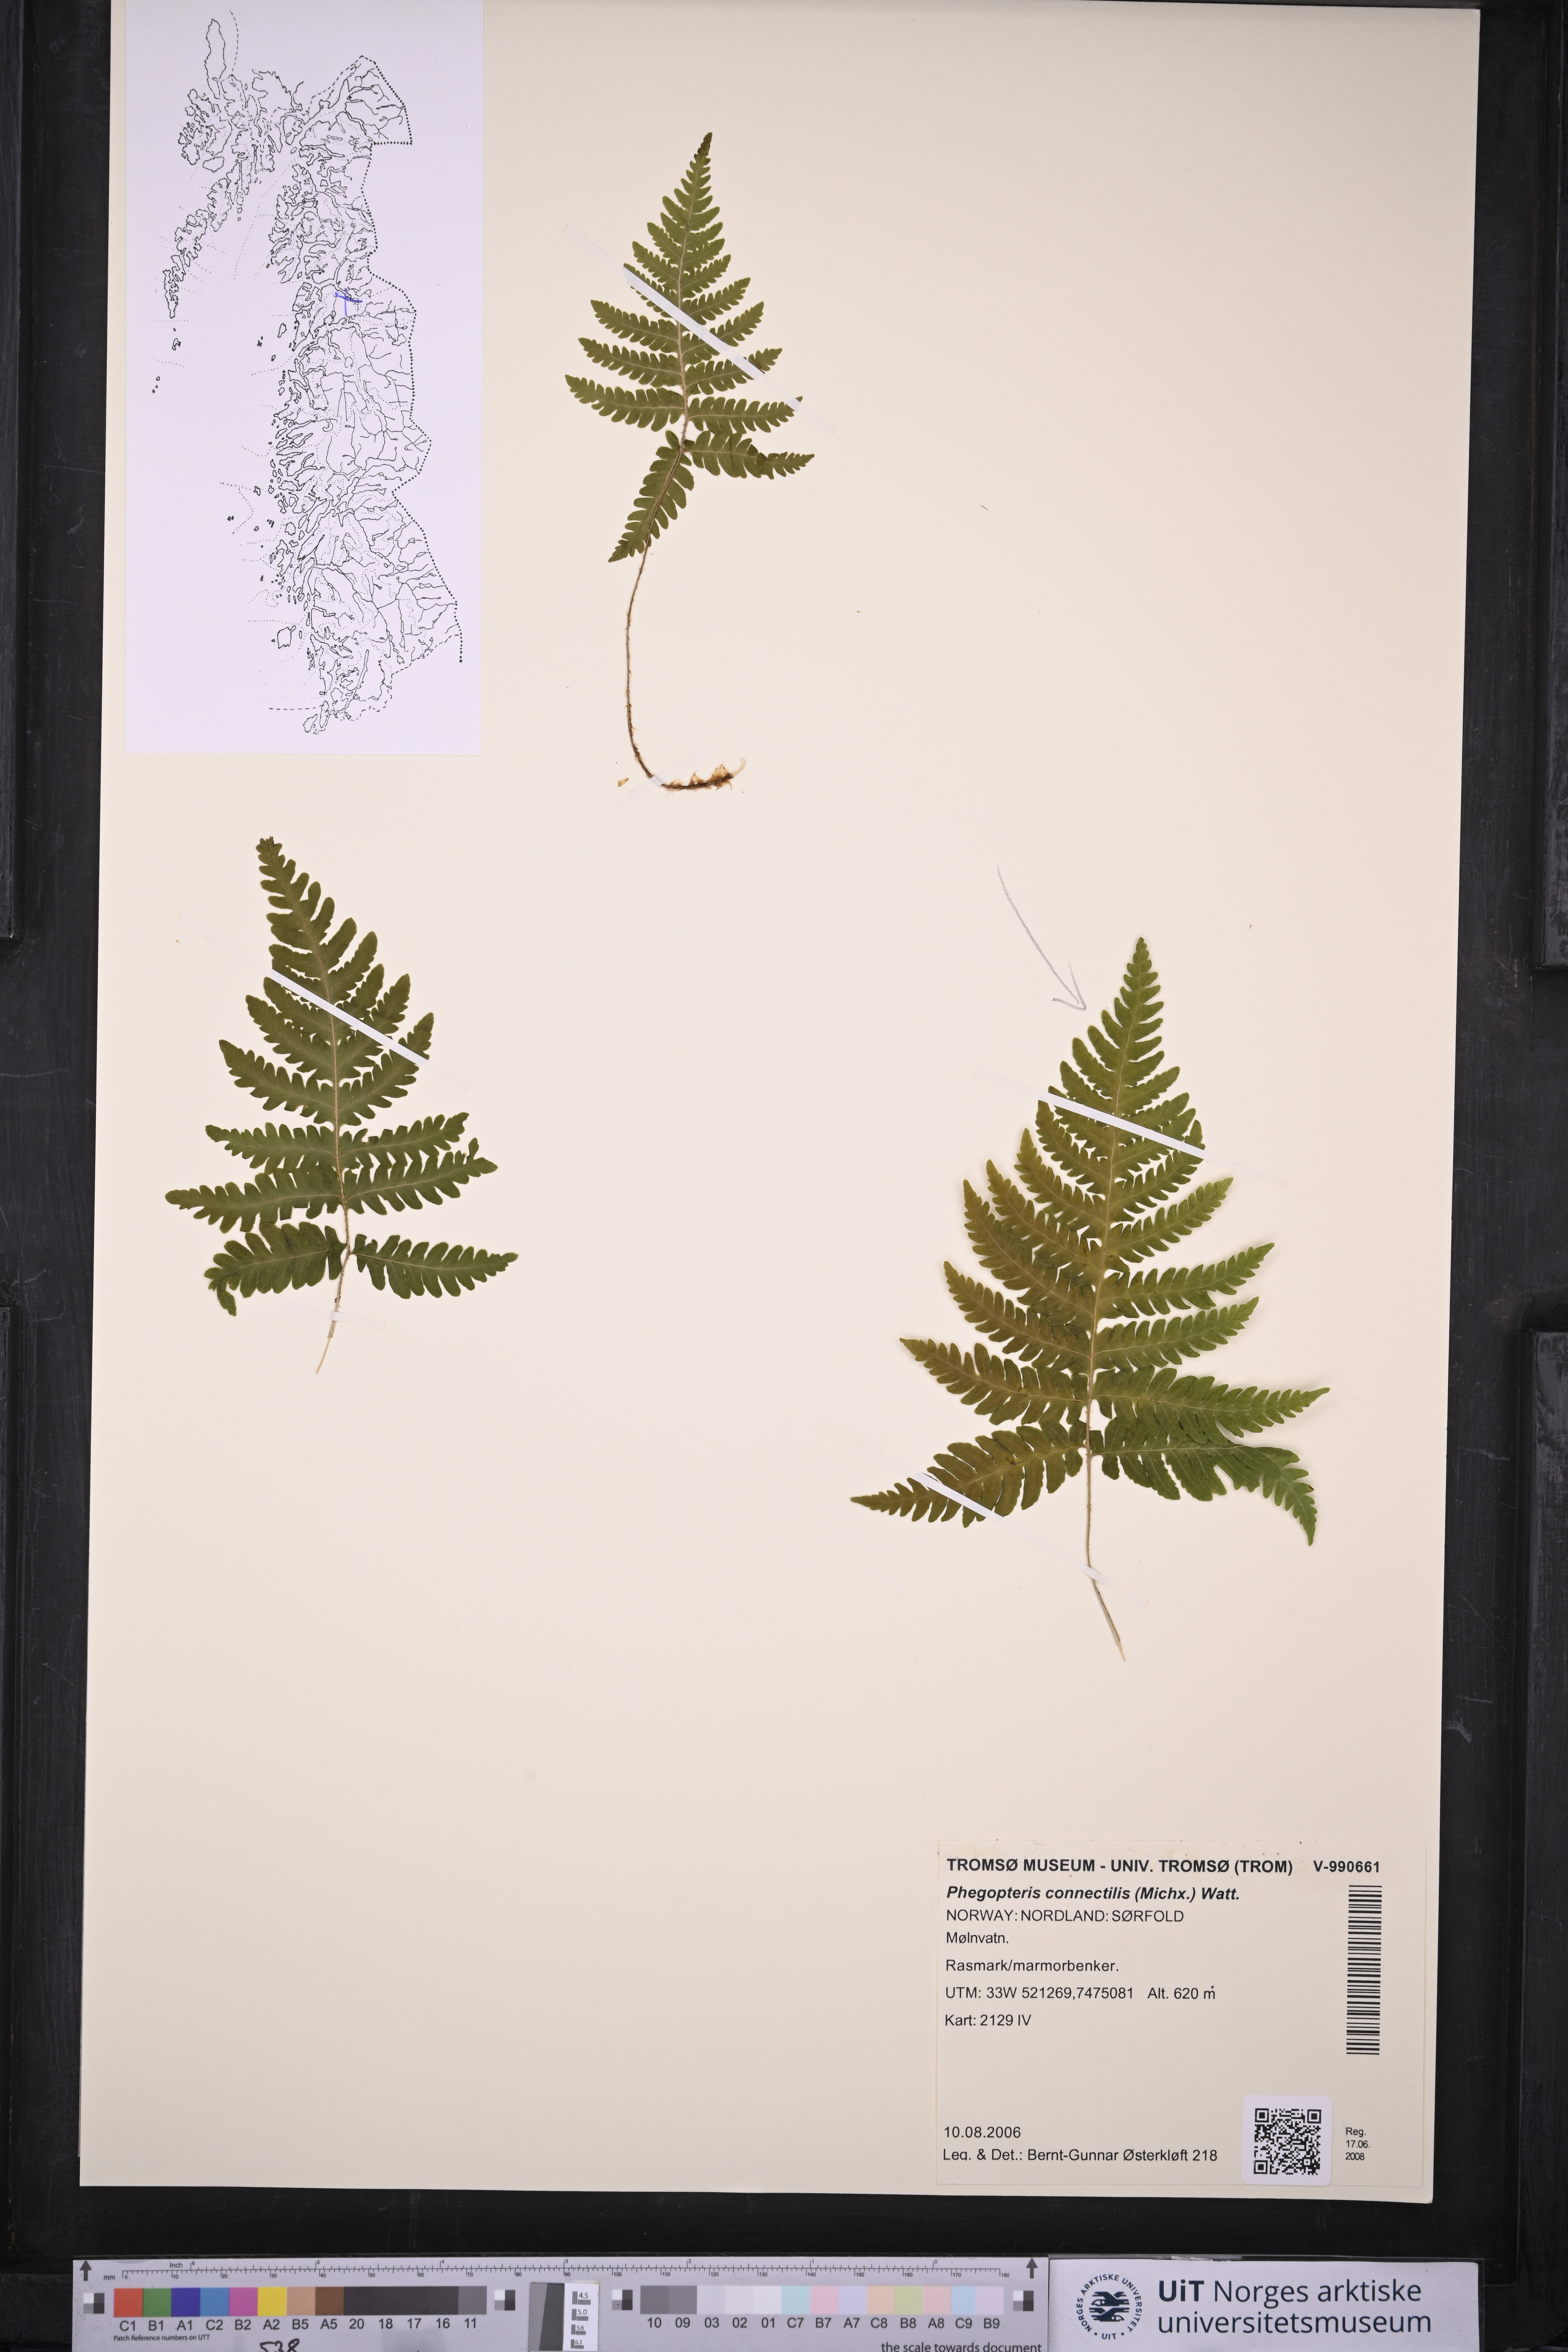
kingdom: Plantae
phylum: Tracheophyta
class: Polypodiopsida
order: Polypodiales
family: Thelypteridaceae
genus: Phegopteris
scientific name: Phegopteris connectilis
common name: Beech fern
